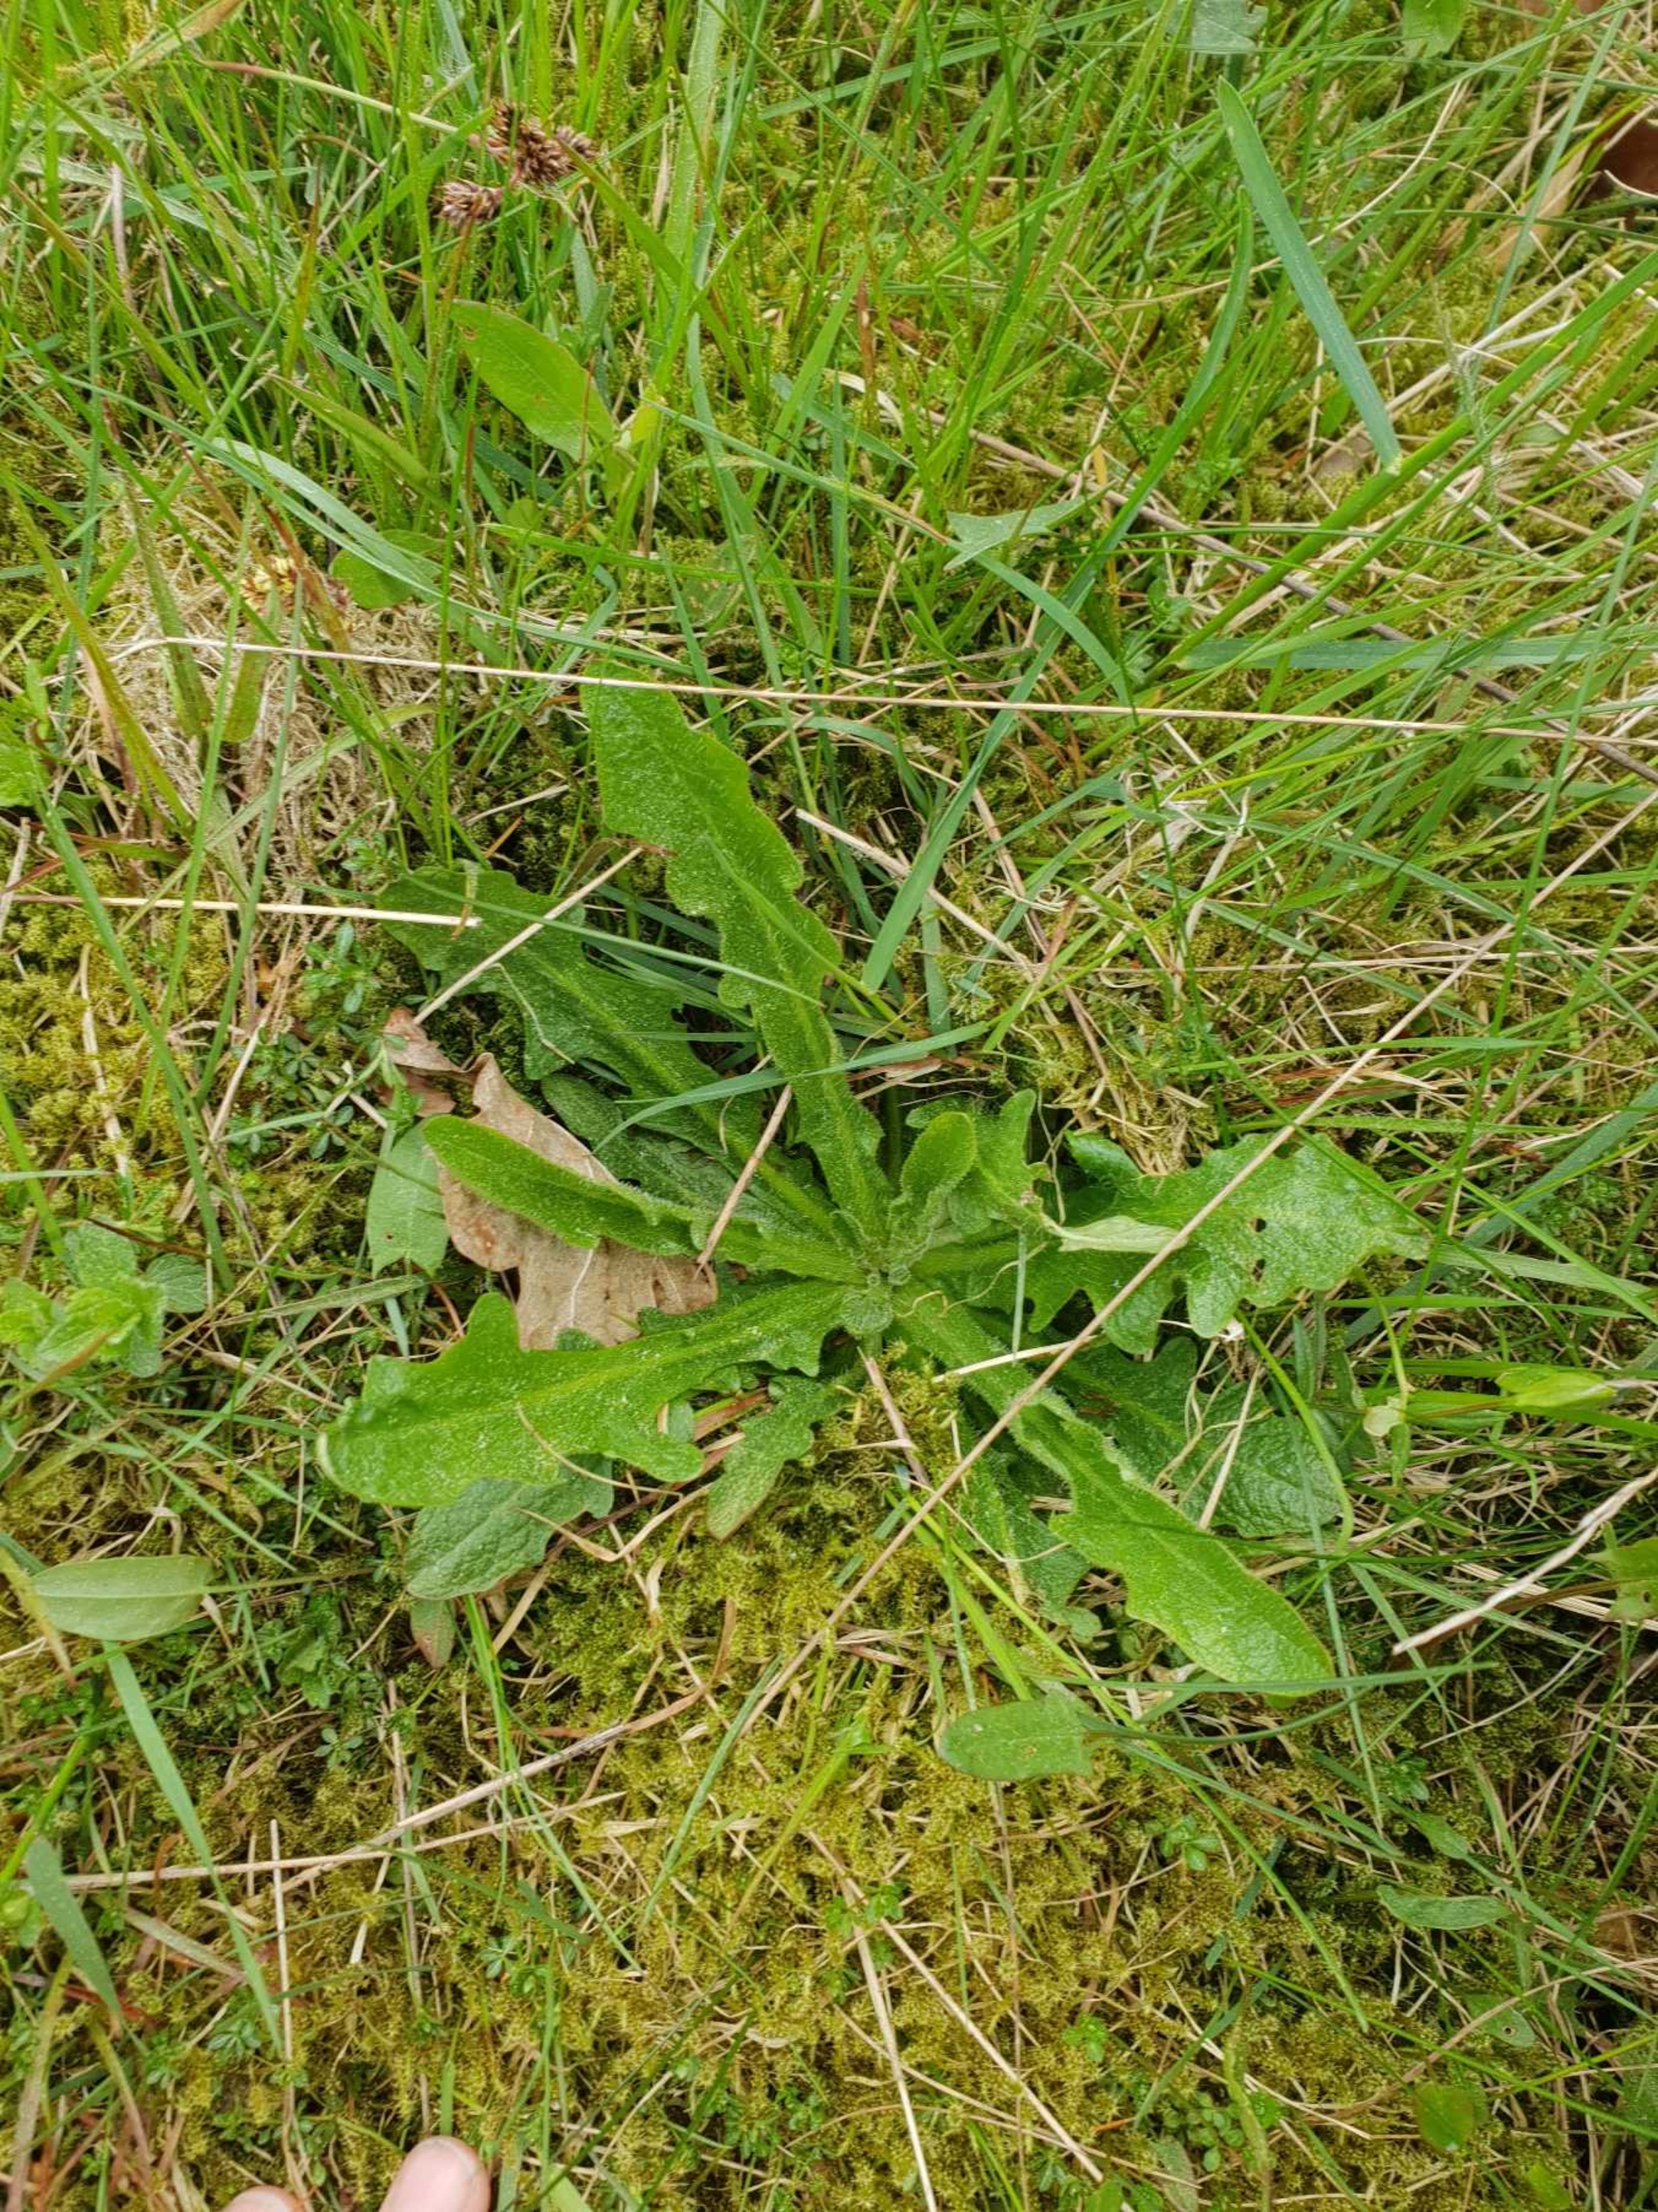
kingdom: Plantae
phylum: Tracheophyta
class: Magnoliopsida
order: Asterales
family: Asteraceae
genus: Hypochaeris
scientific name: Hypochaeris radicata
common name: Almindelig kongepen
